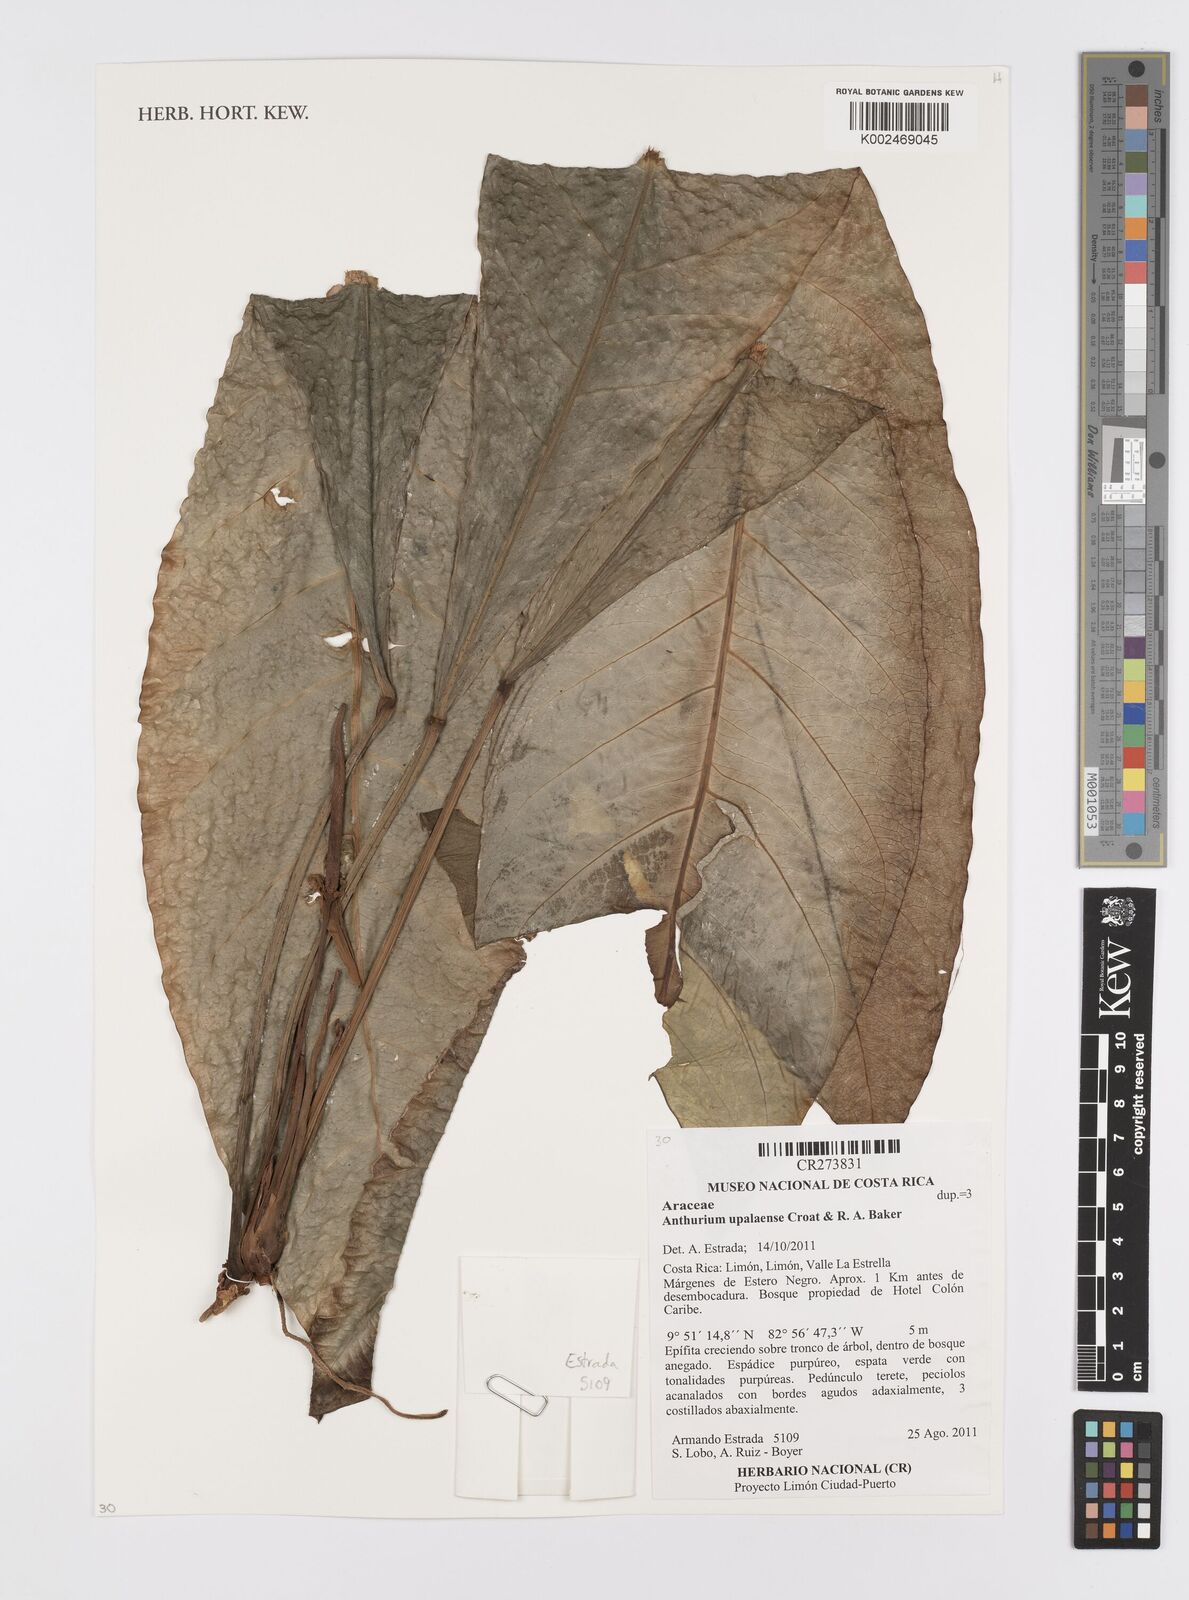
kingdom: Plantae
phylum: Tracheophyta
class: Liliopsida
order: Alismatales
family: Araceae
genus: Anthurium
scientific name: Anthurium upalaense
